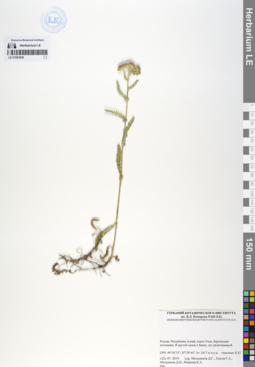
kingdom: Plantae
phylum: Tracheophyta
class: Magnoliopsida
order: Asterales
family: Asteraceae
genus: Achillea
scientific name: Achillea sergievskiana
